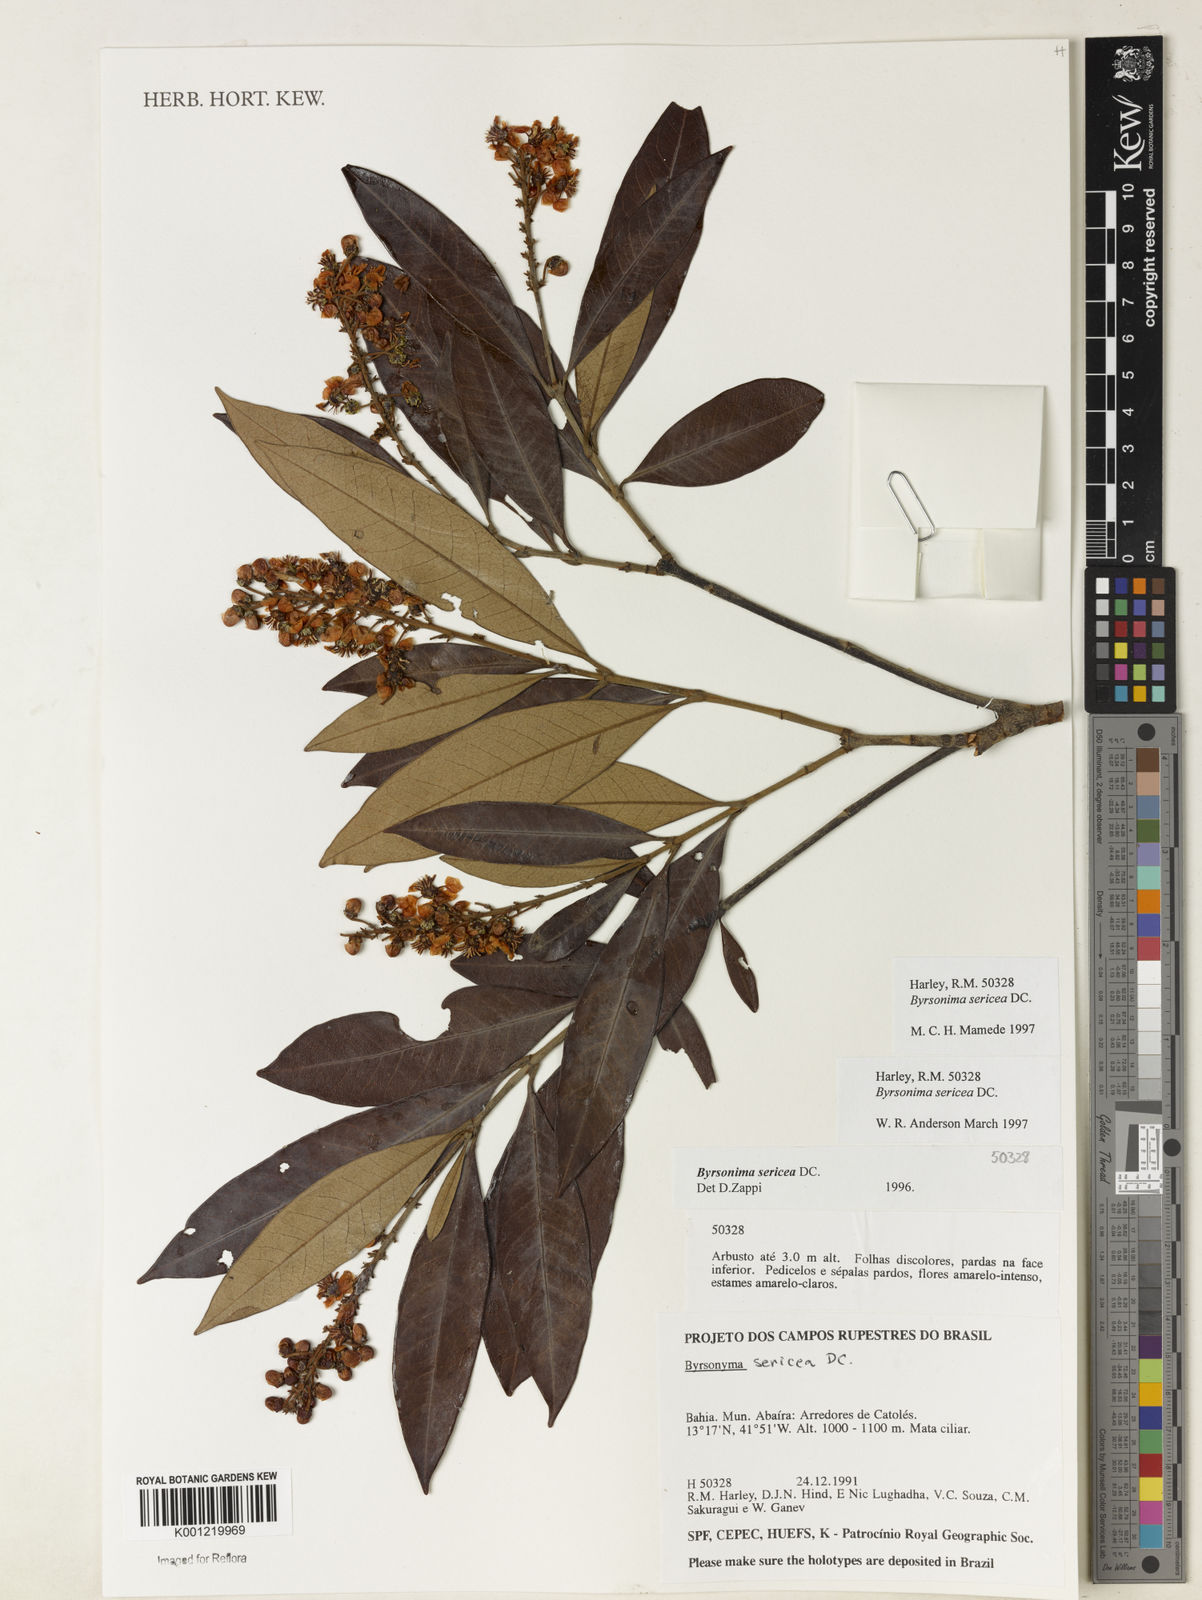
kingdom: Plantae
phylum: Tracheophyta
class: Magnoliopsida
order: Malpighiales
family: Malpighiaceae
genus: Byrsonima
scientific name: Byrsonima sericea
